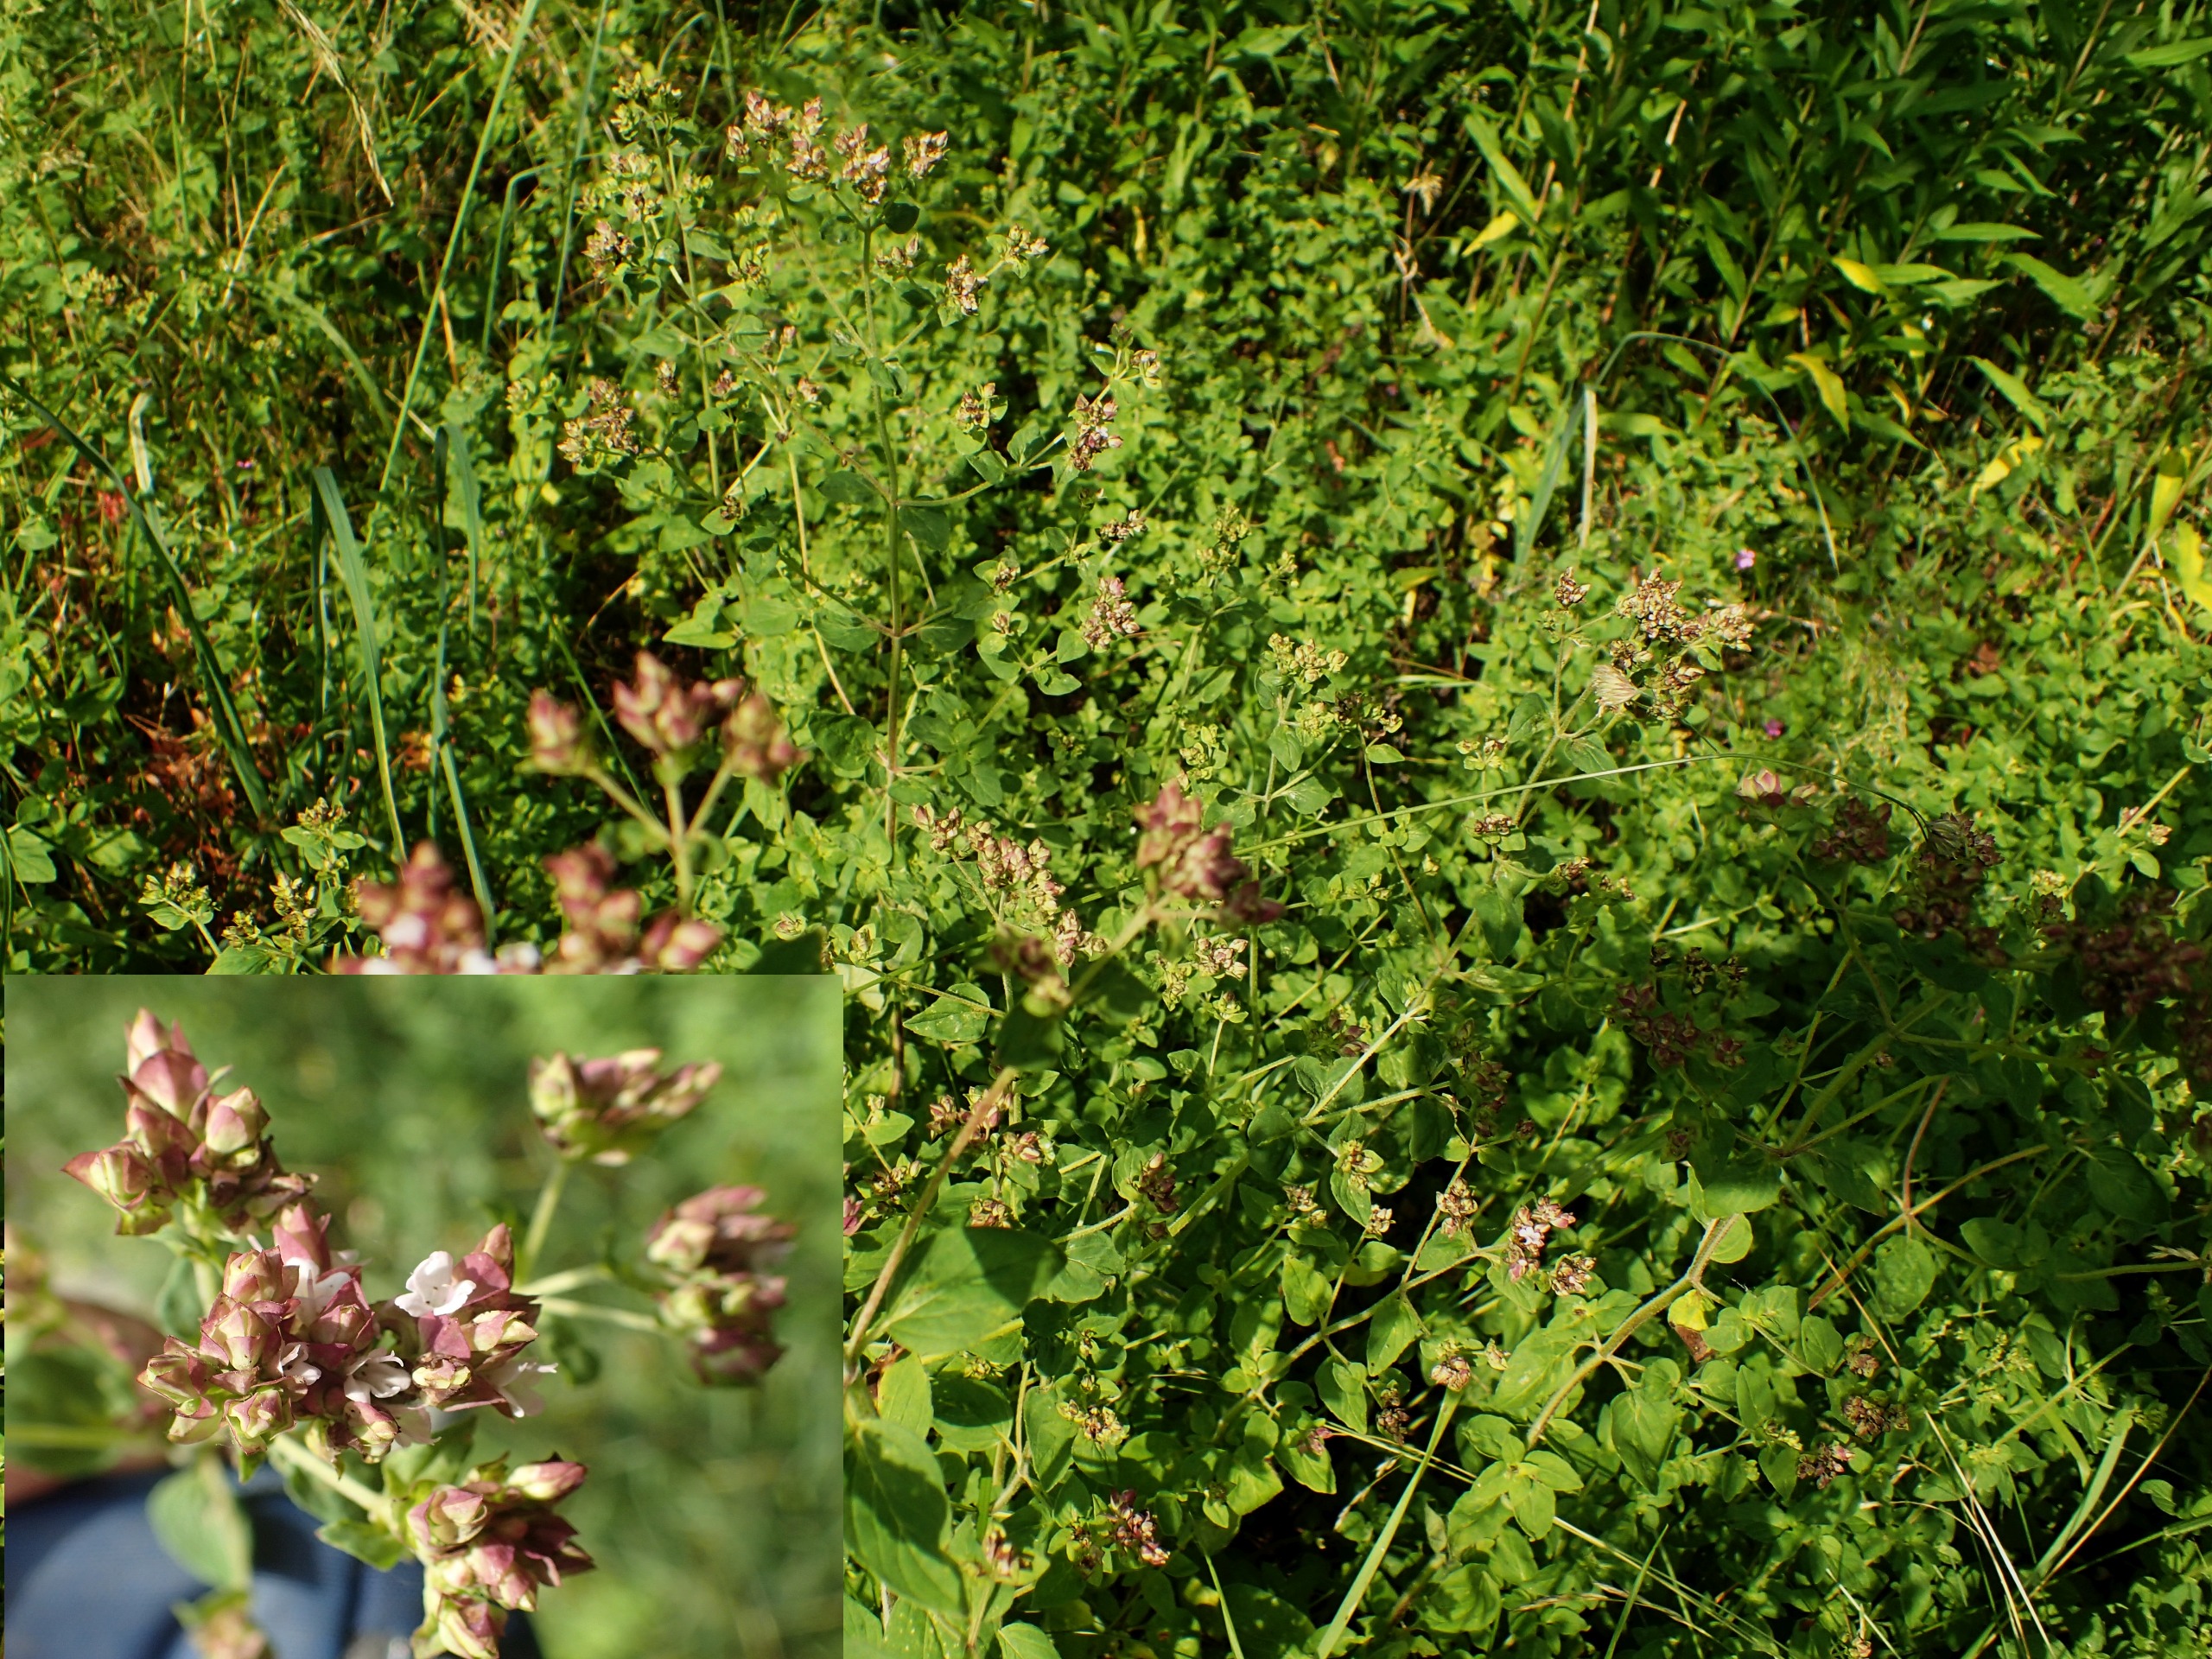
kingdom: Plantae
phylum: Tracheophyta
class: Magnoliopsida
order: Lamiales
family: Lamiaceae
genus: Origanum
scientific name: Origanum vulgare
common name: Merian
